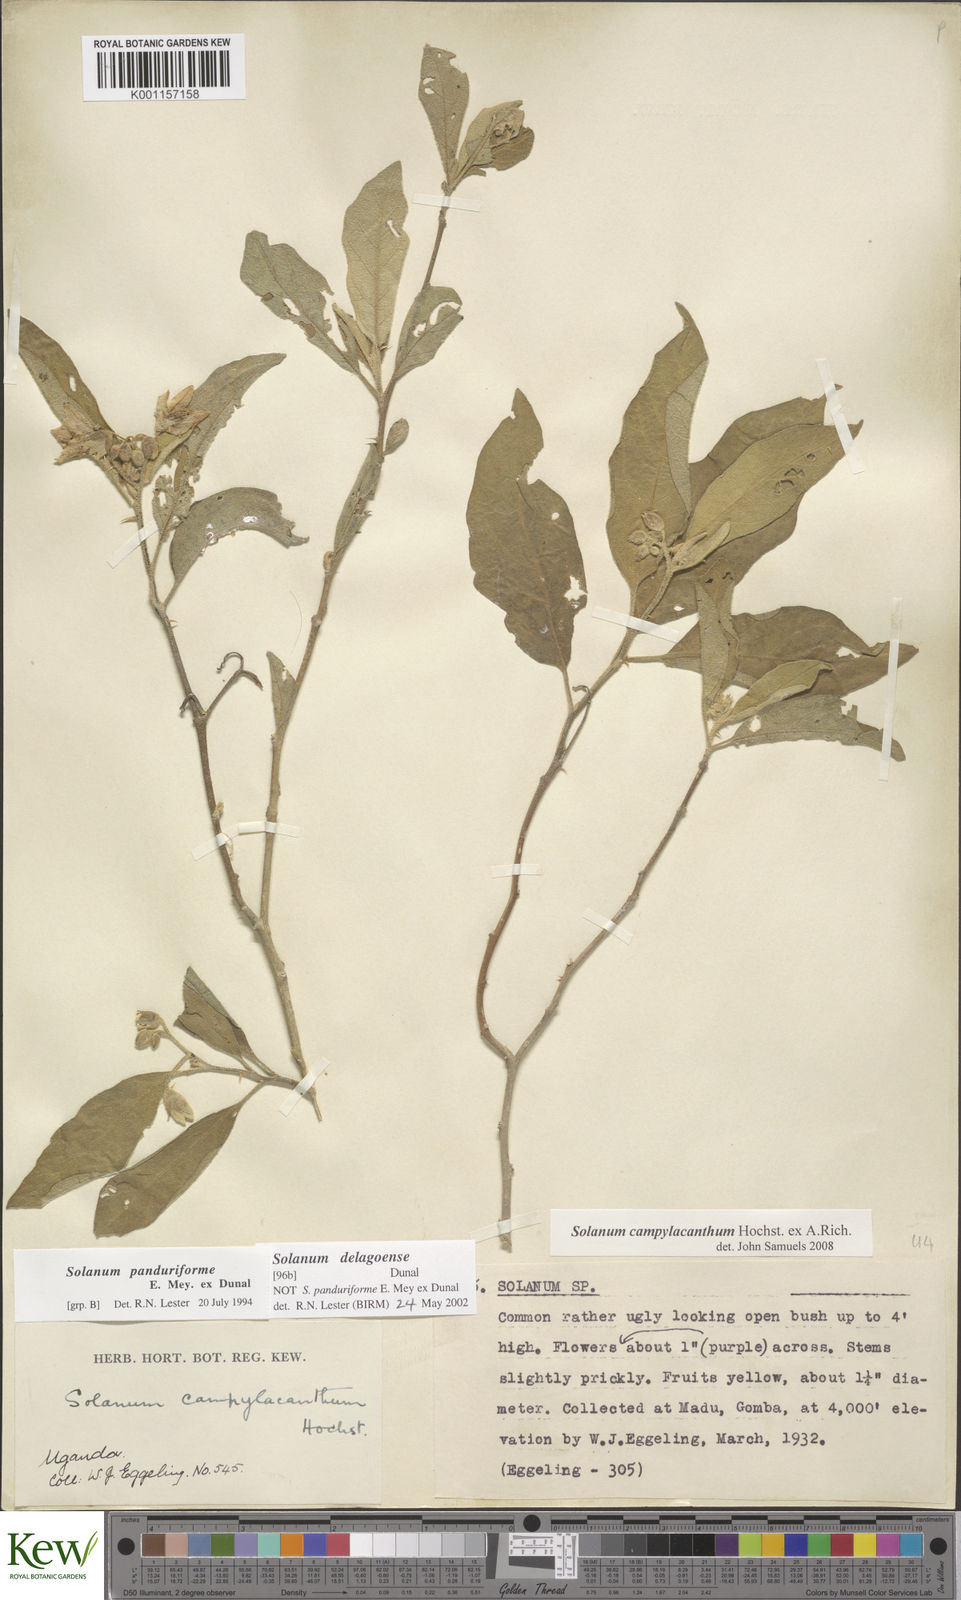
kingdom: Plantae
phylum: Tracheophyta
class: Magnoliopsida
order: Solanales
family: Solanaceae
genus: Solanum
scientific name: Solanum campylacanthum
